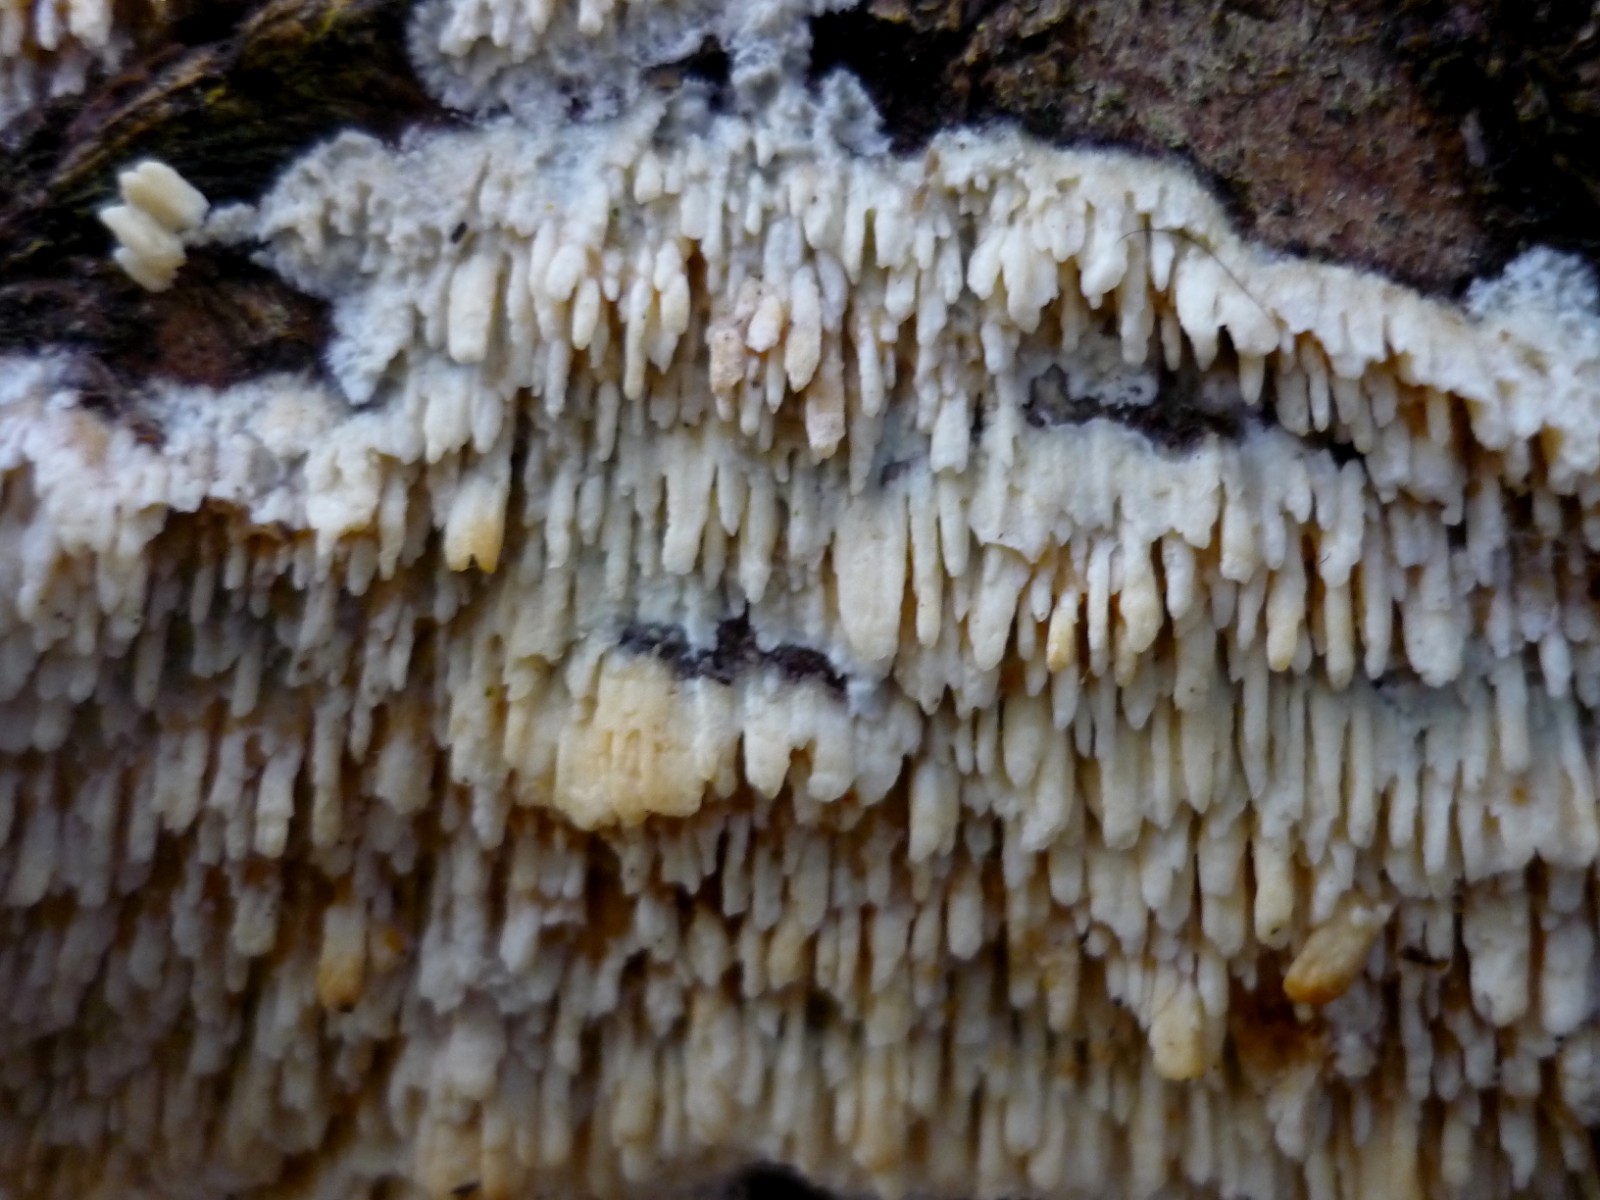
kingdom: Fungi
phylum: Basidiomycota
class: Agaricomycetes
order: Hymenochaetales
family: Schizoporaceae
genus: Xylodon
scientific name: Xylodon radula
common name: grovtandet kalkskind
